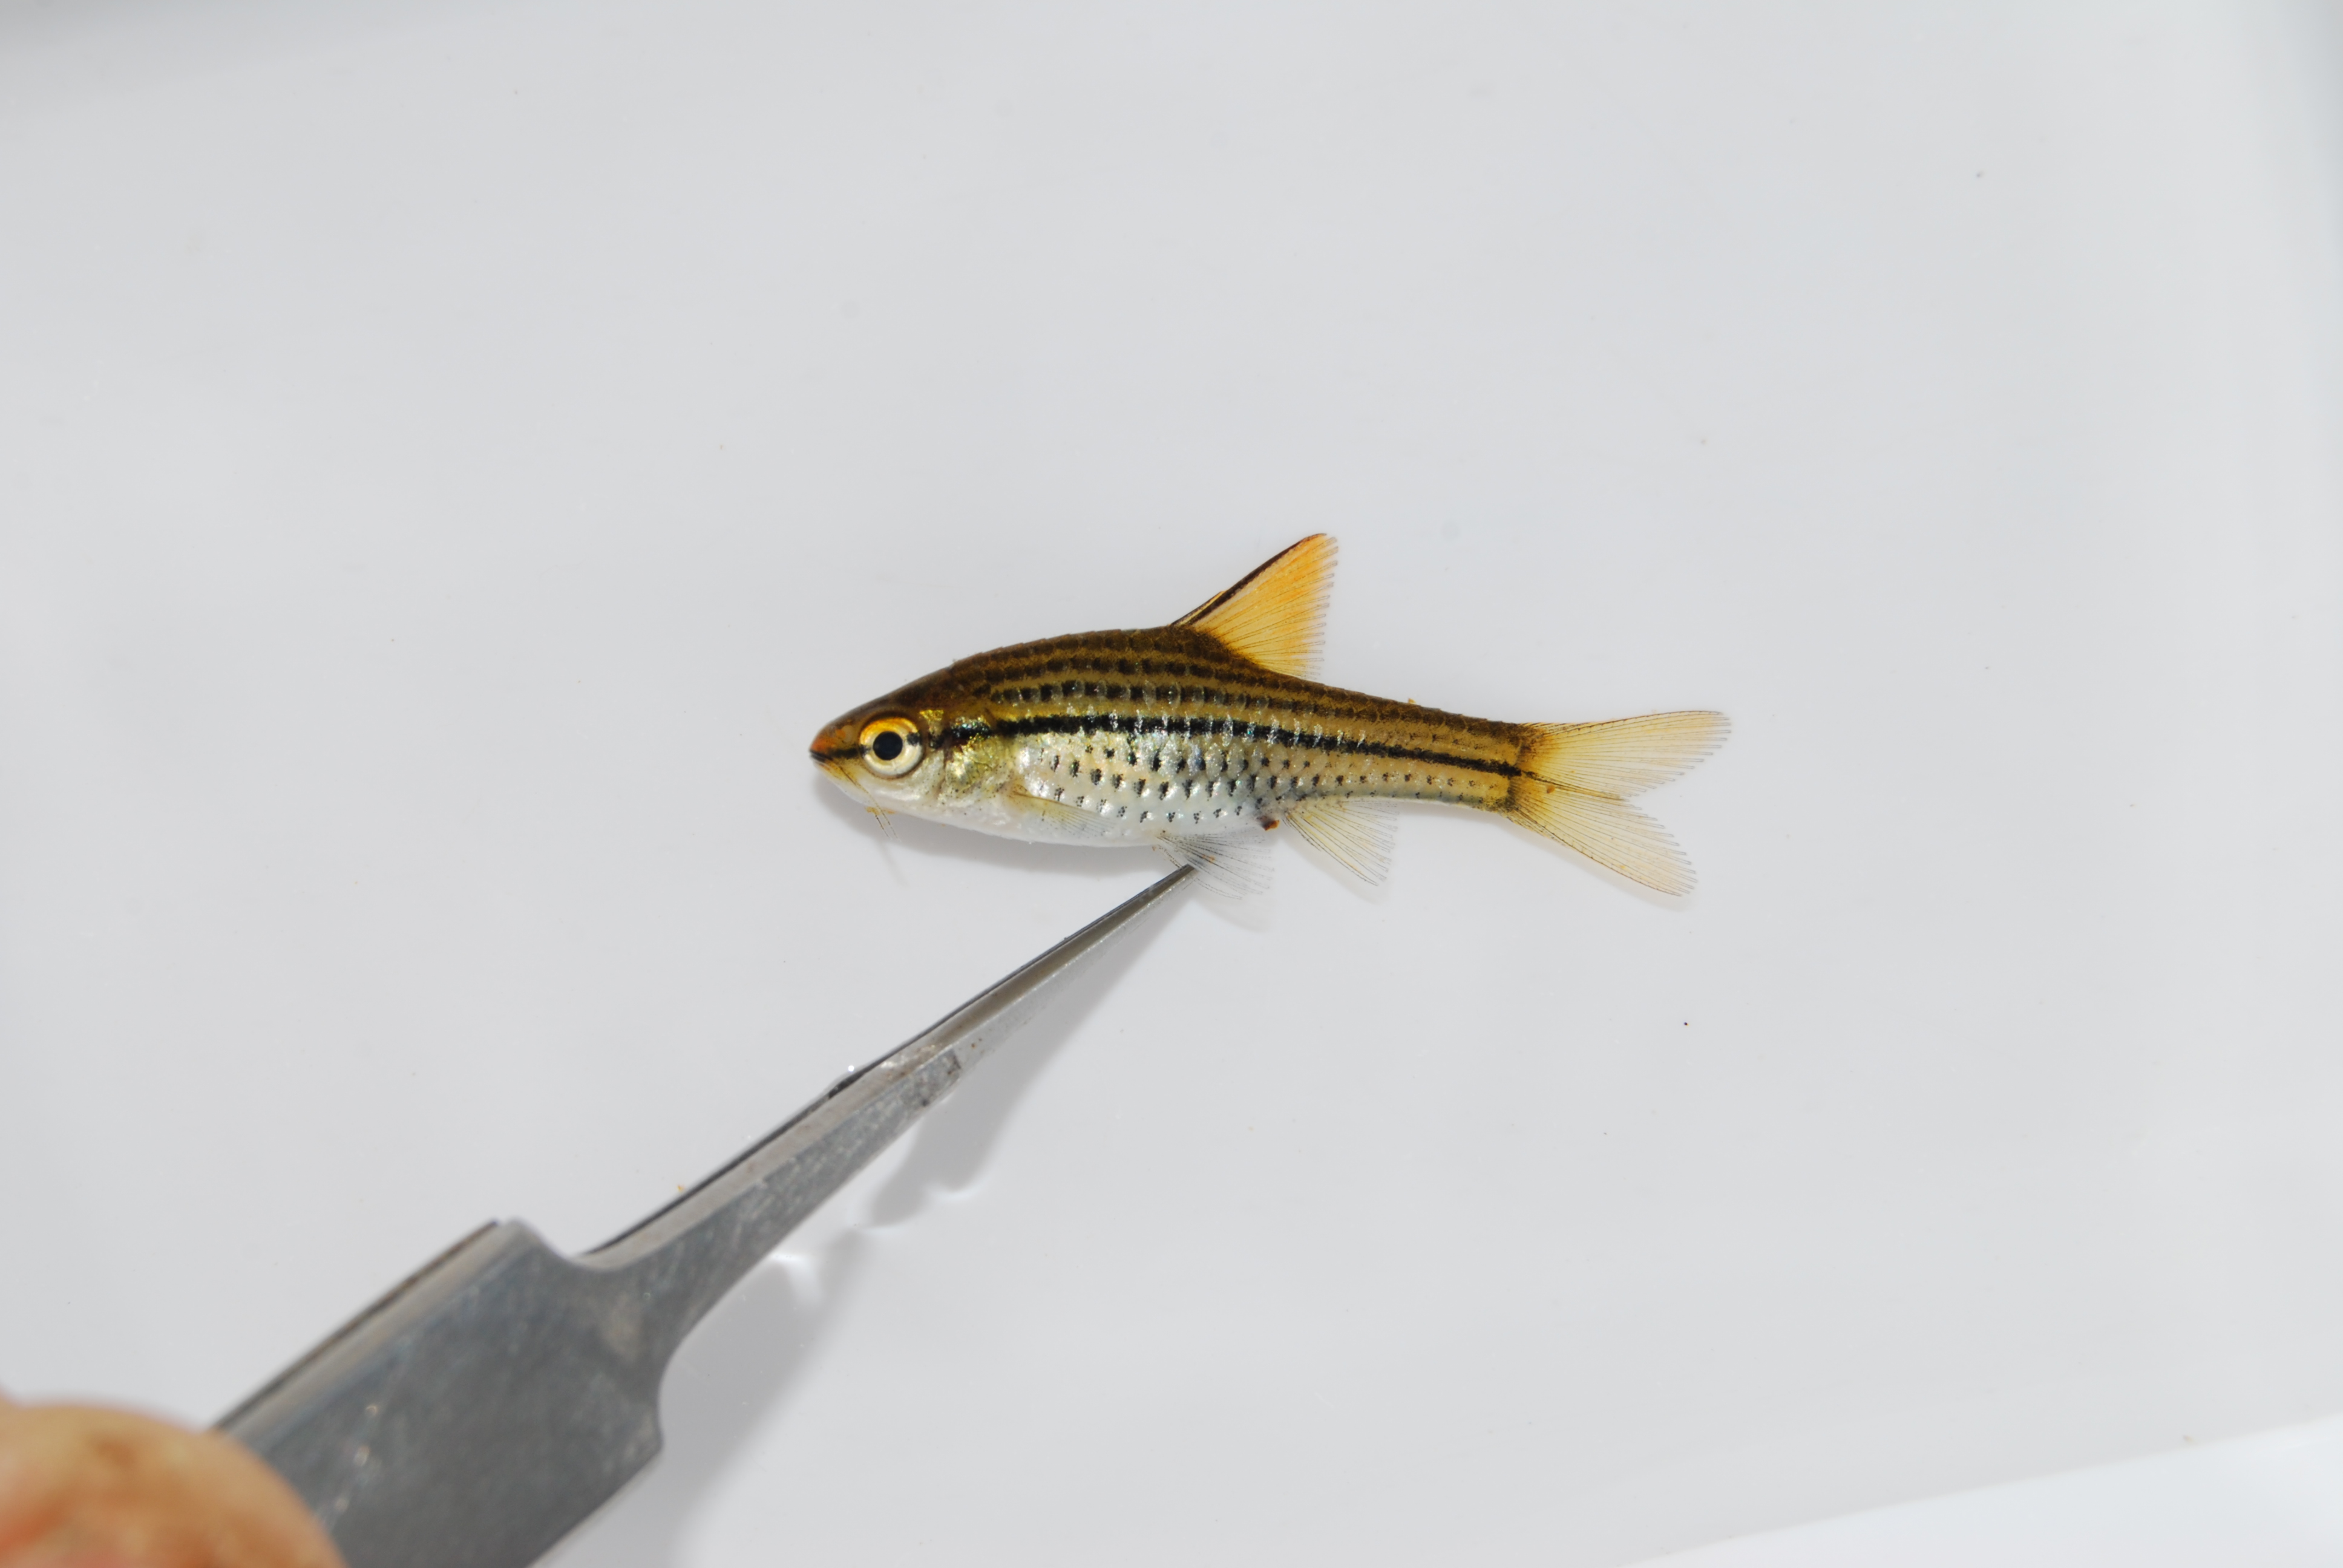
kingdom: Animalia
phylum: Chordata
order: Cypriniformes
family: Cyprinidae
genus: Enteromius
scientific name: Enteromius multilineatus
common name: Copperstripe barb
